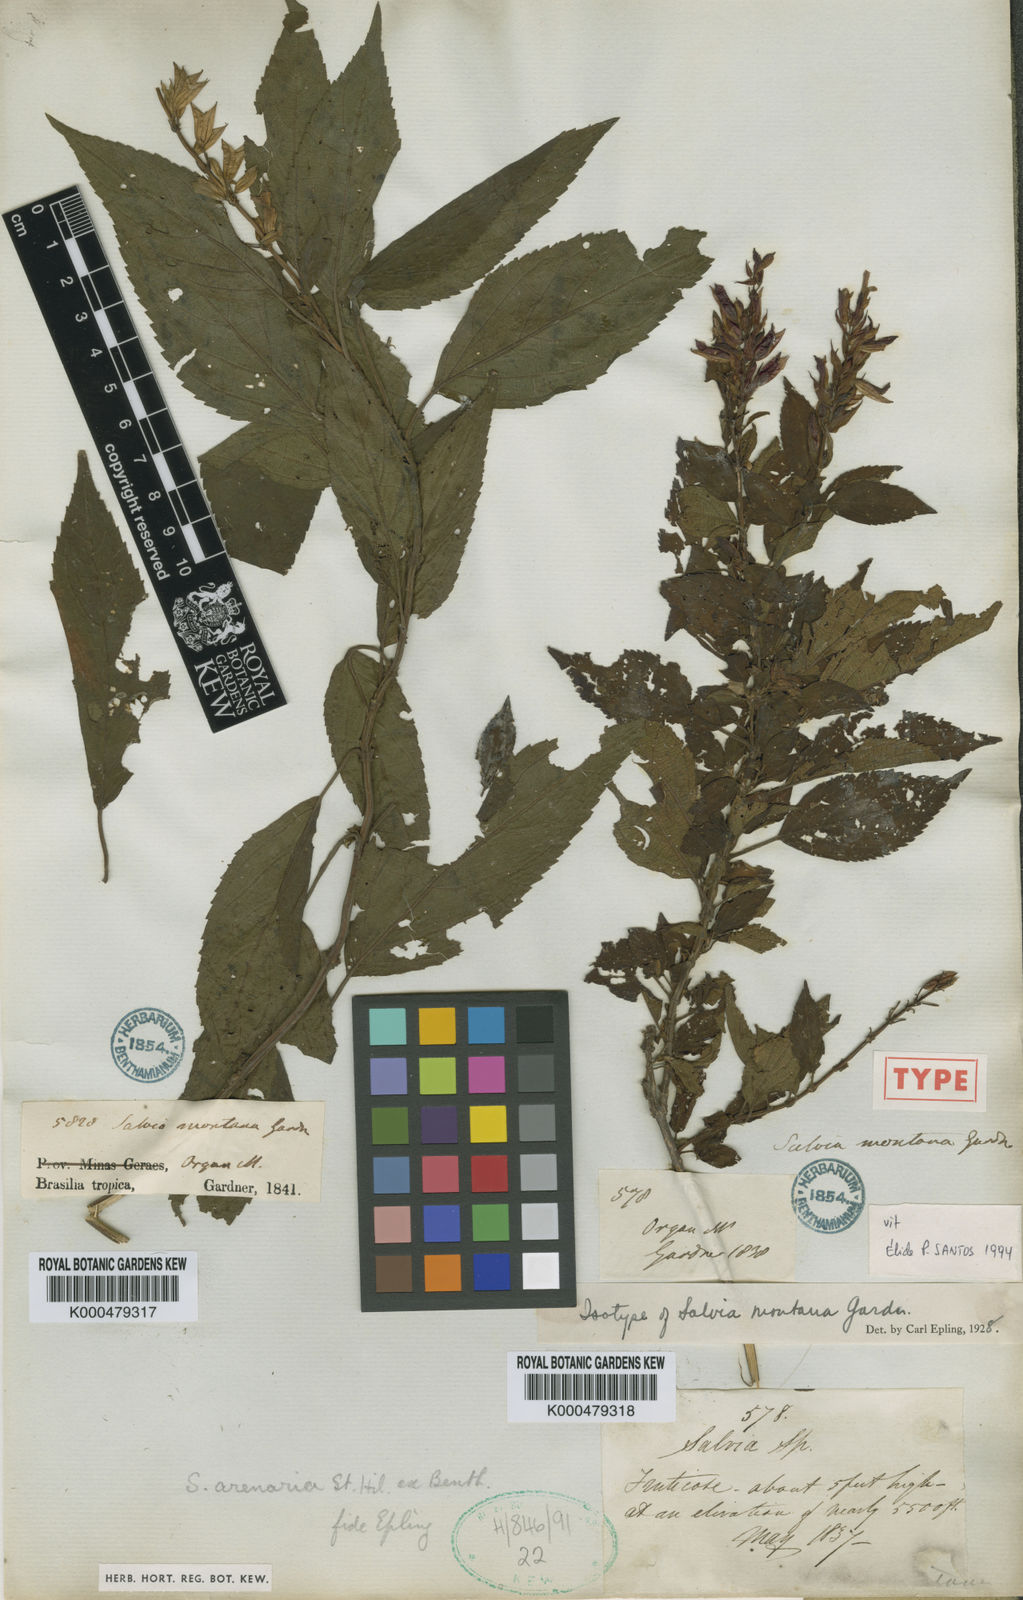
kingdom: Plantae
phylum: Tracheophyta
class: Magnoliopsida
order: Lamiales
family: Lamiaceae
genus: Salvia
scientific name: Salvia arenaria
